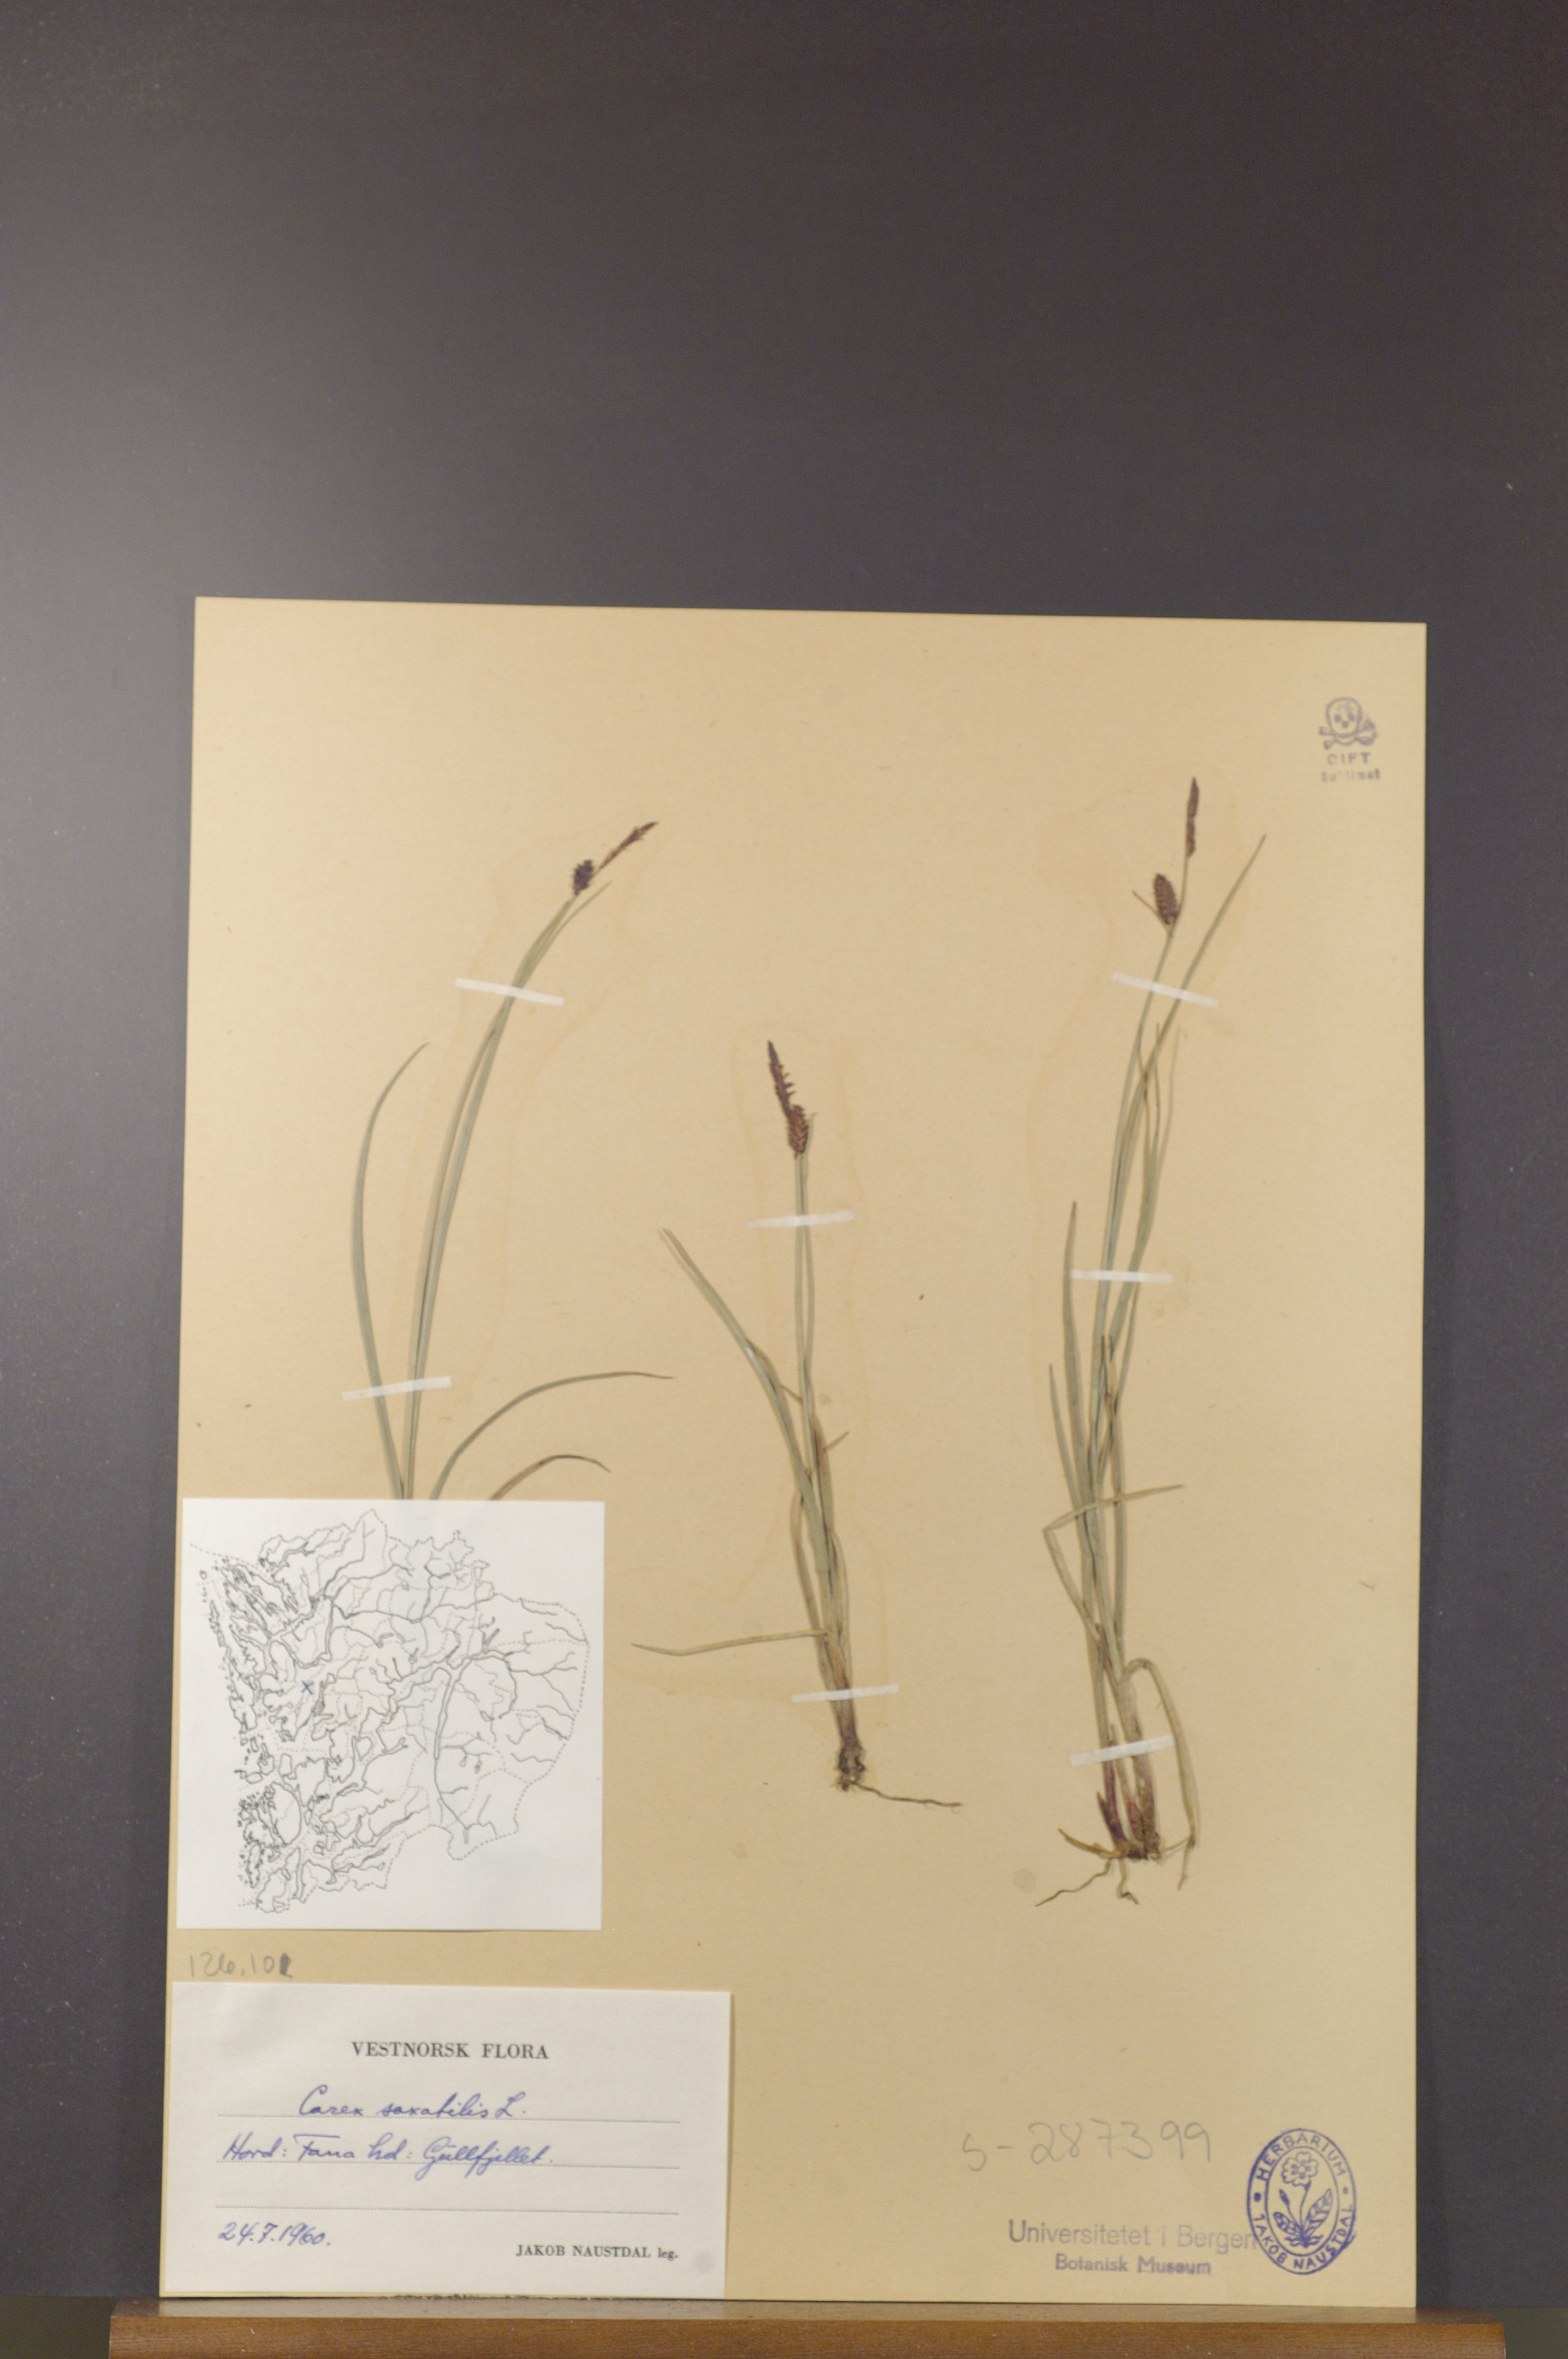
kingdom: Plantae
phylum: Tracheophyta
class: Liliopsida
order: Poales
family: Cyperaceae
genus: Carex
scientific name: Carex saxatilis
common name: Russet sedge
